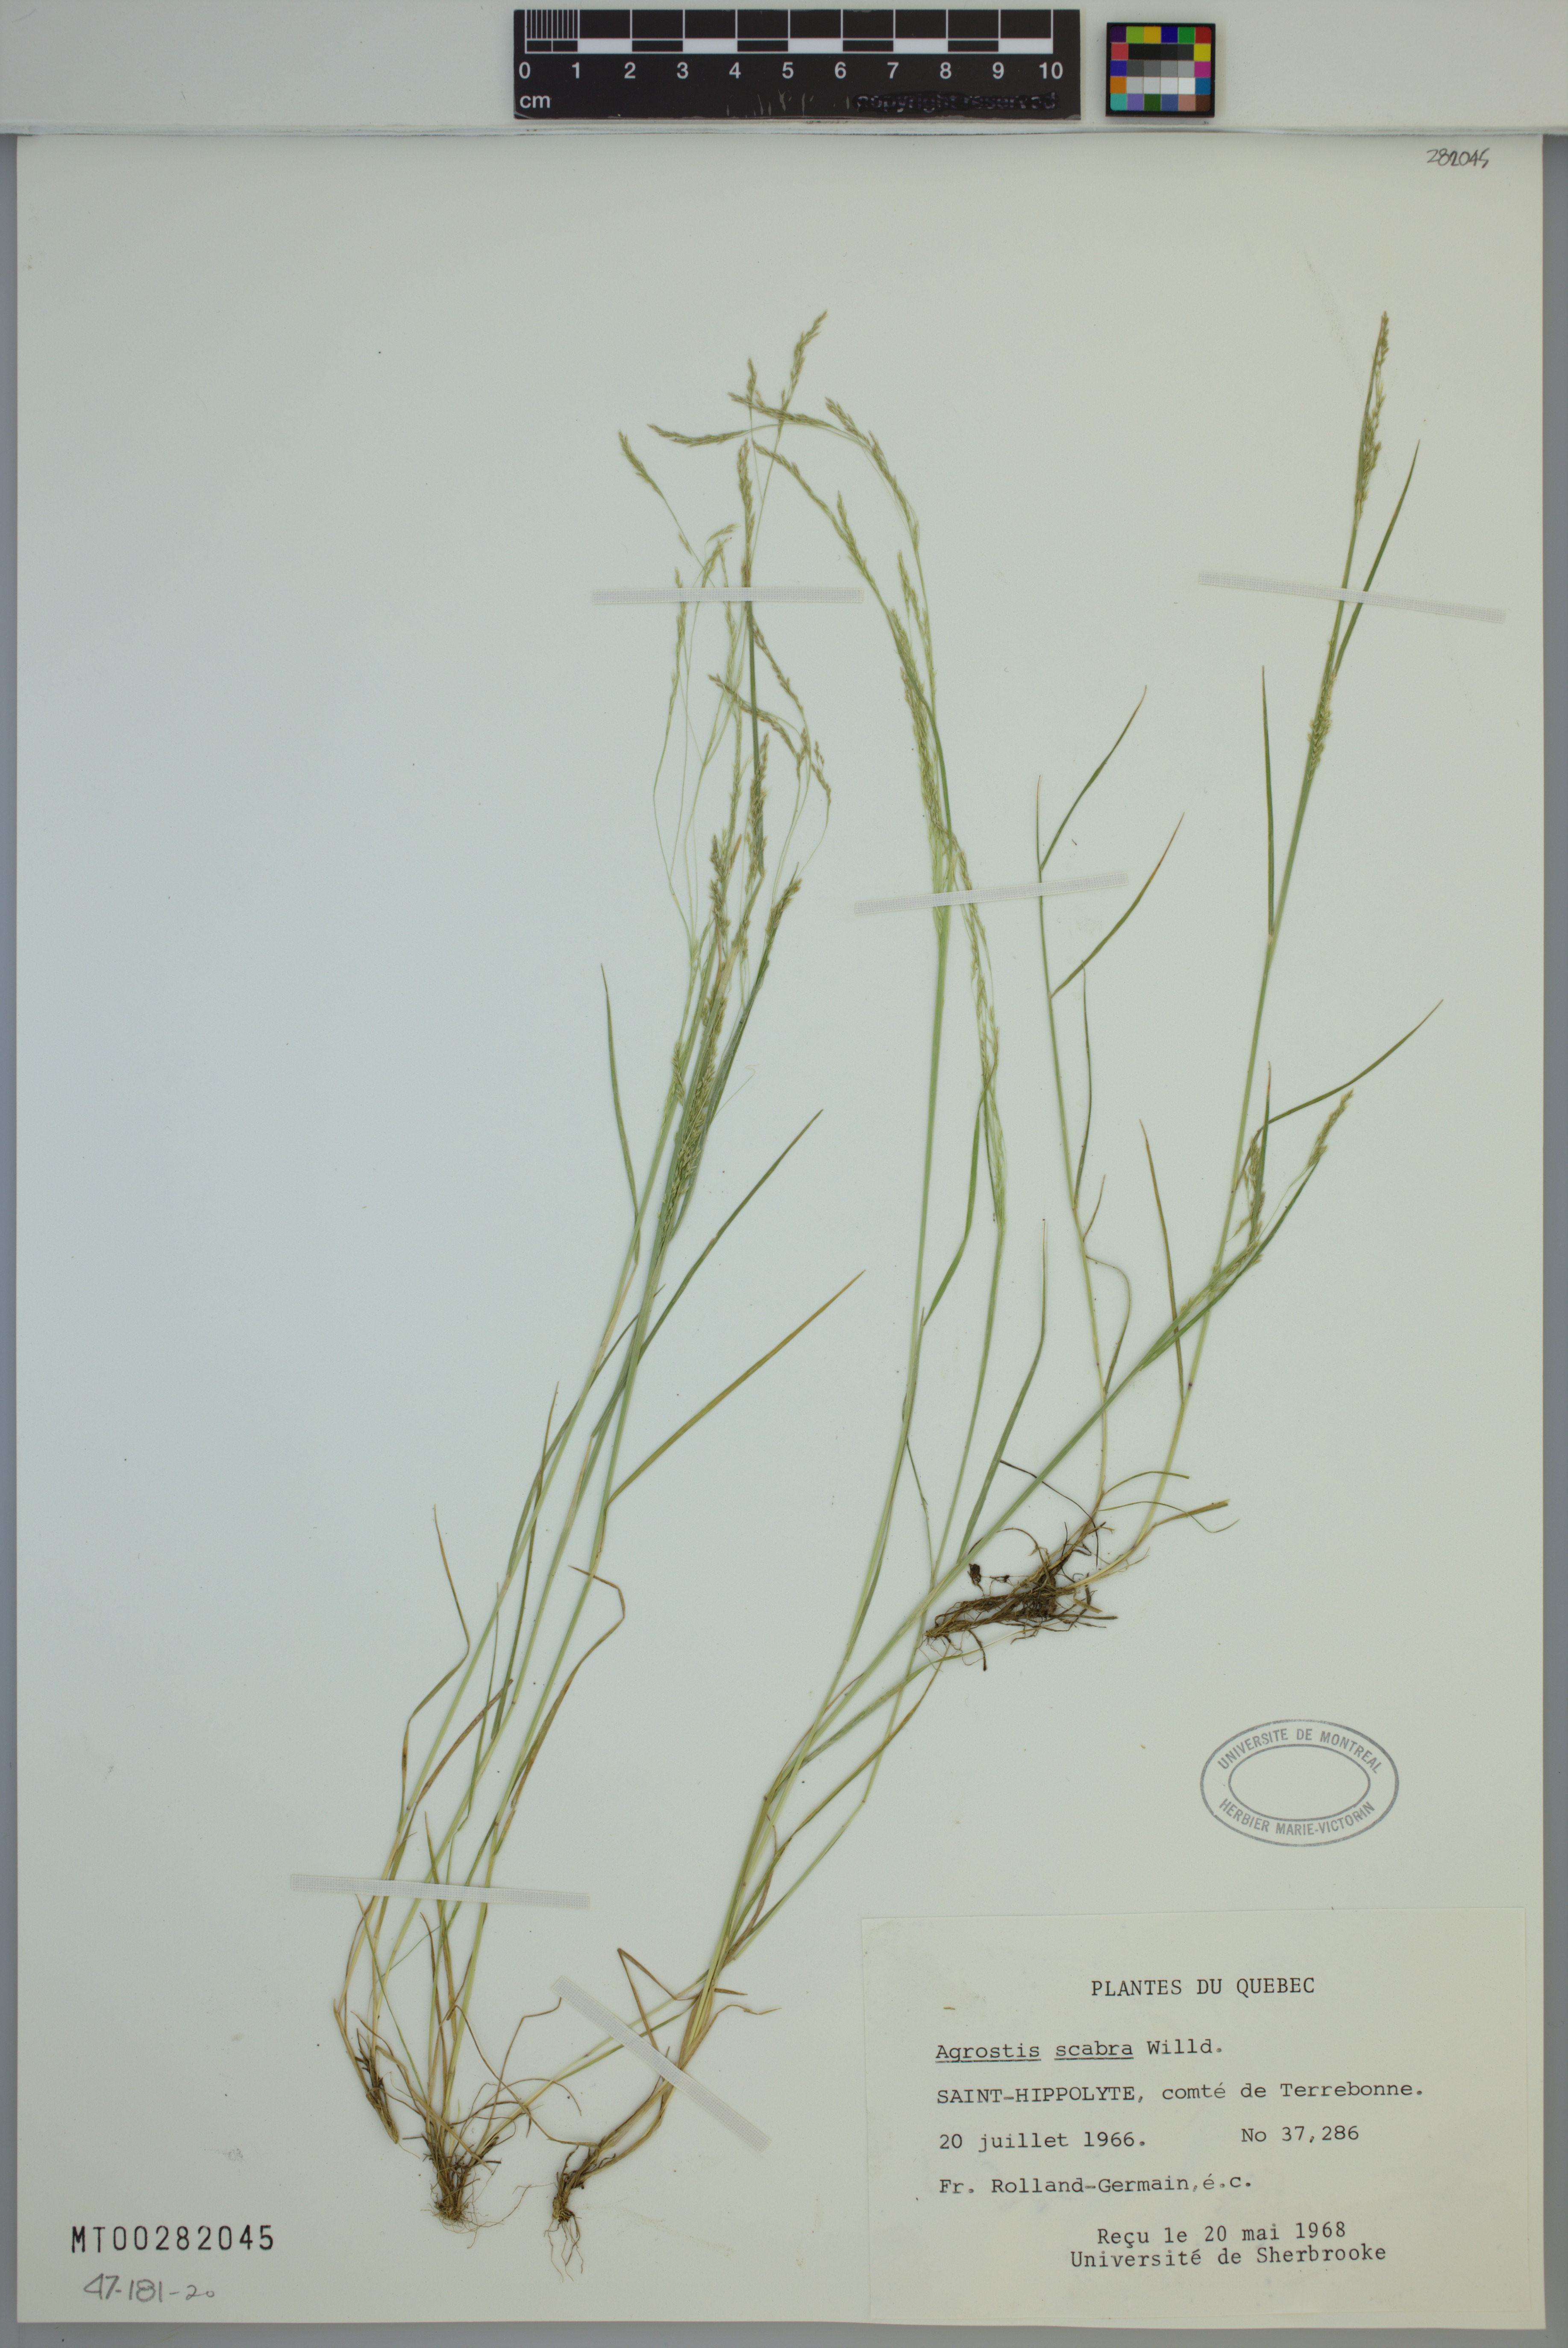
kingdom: Plantae
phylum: Tracheophyta
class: Liliopsida
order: Poales
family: Poaceae
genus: Agrostis
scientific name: Agrostis scabra
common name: Rough bent
